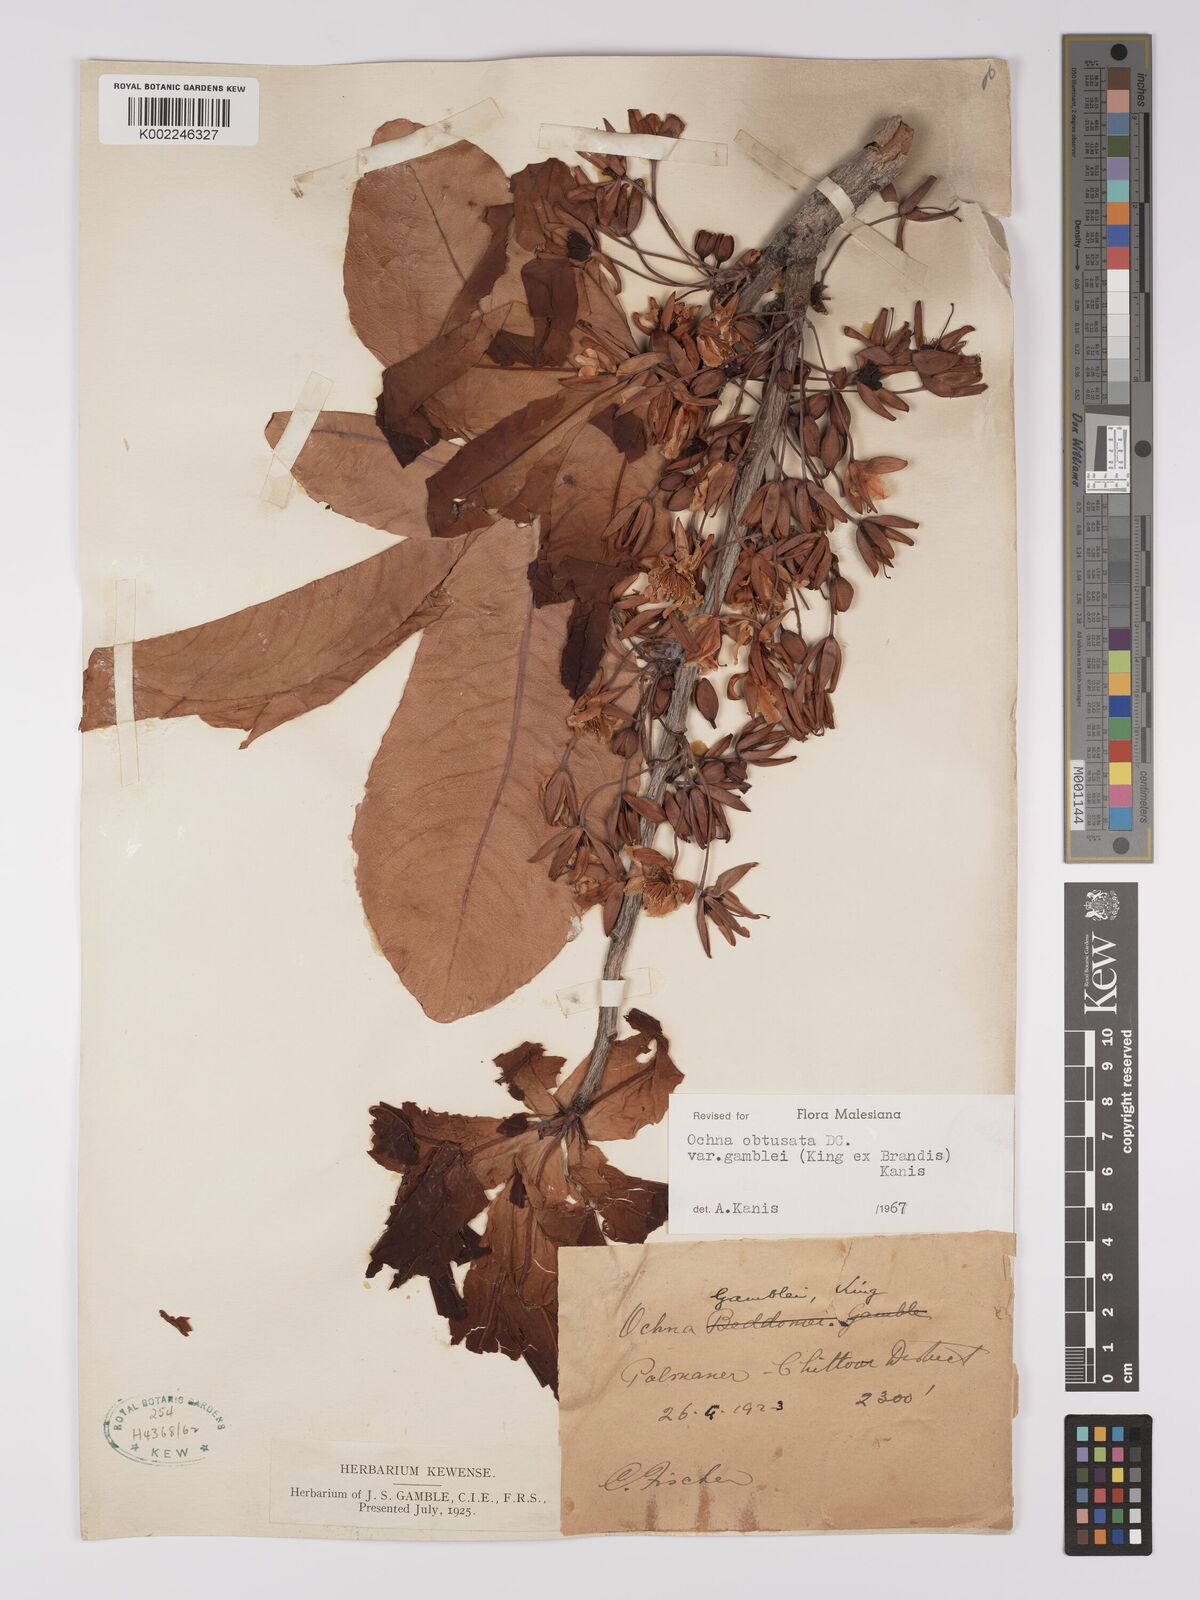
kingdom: Plantae
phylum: Tracheophyta
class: Magnoliopsida
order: Malpighiales
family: Ochnaceae
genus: Ochna
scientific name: Ochna obtusata
